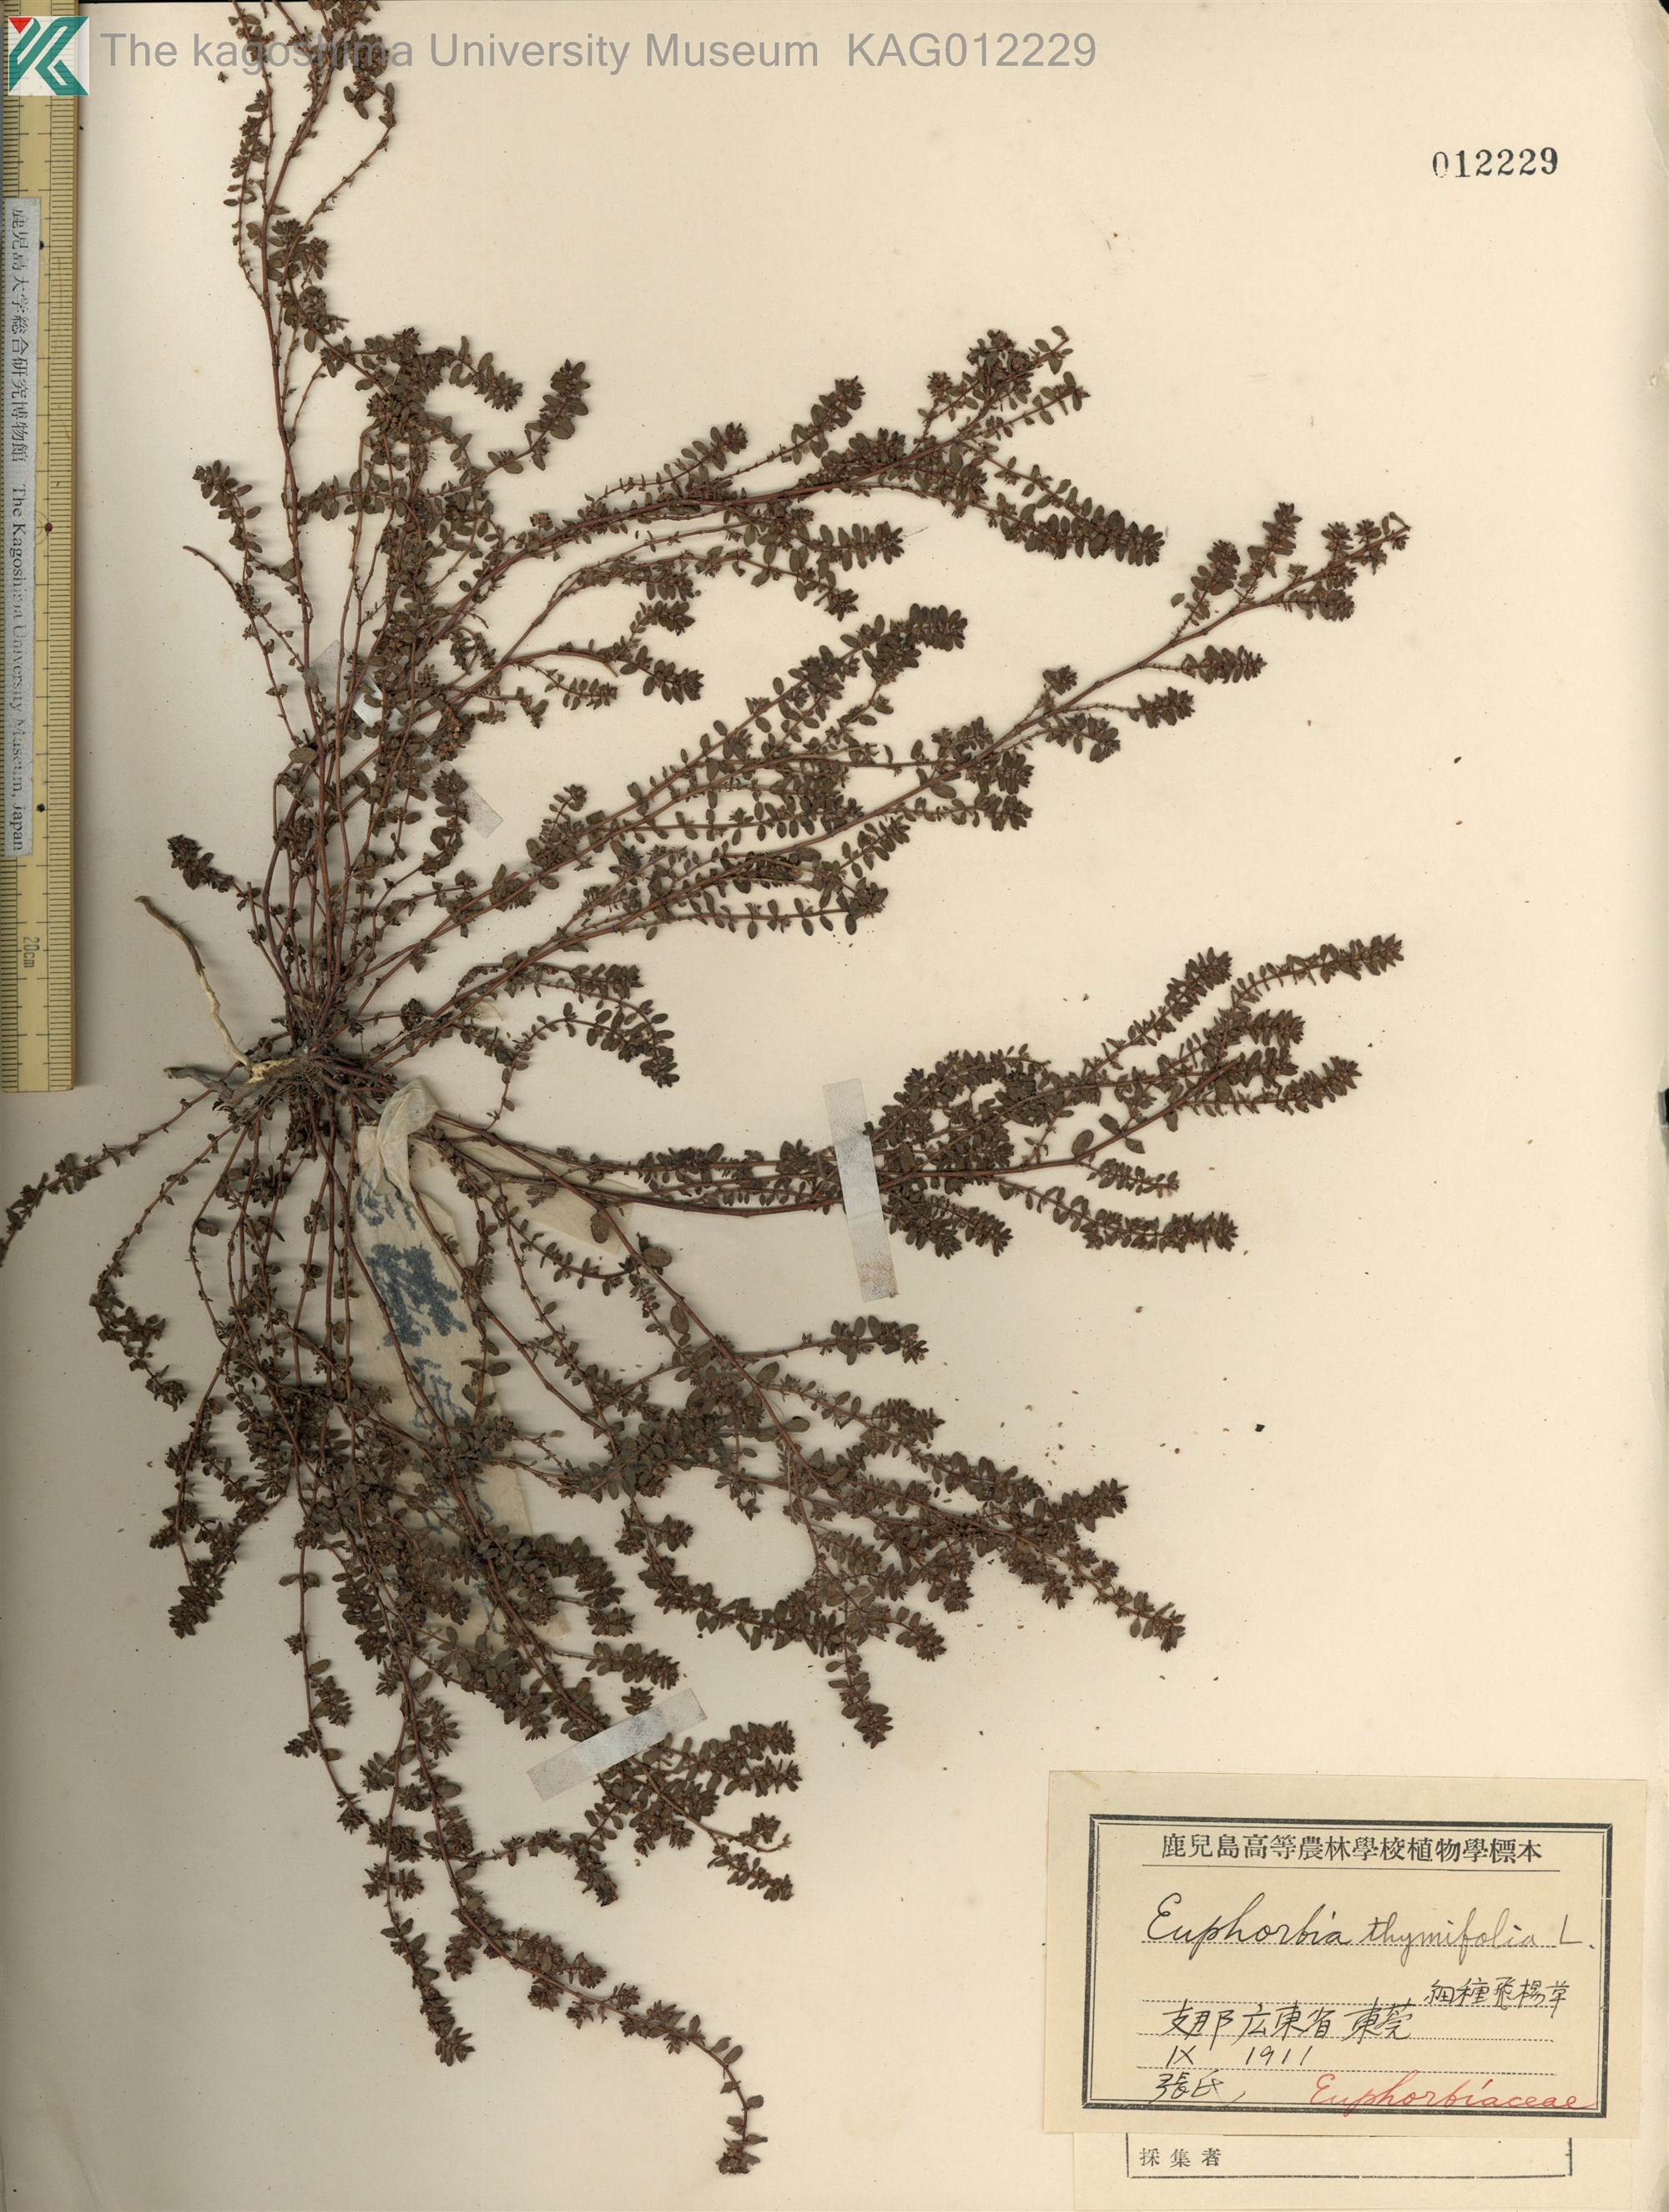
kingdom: Plantae
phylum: Tracheophyta
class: Magnoliopsida
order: Malpighiales
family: Euphorbiaceae
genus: Euphorbia
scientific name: Euphorbia thymifolia
